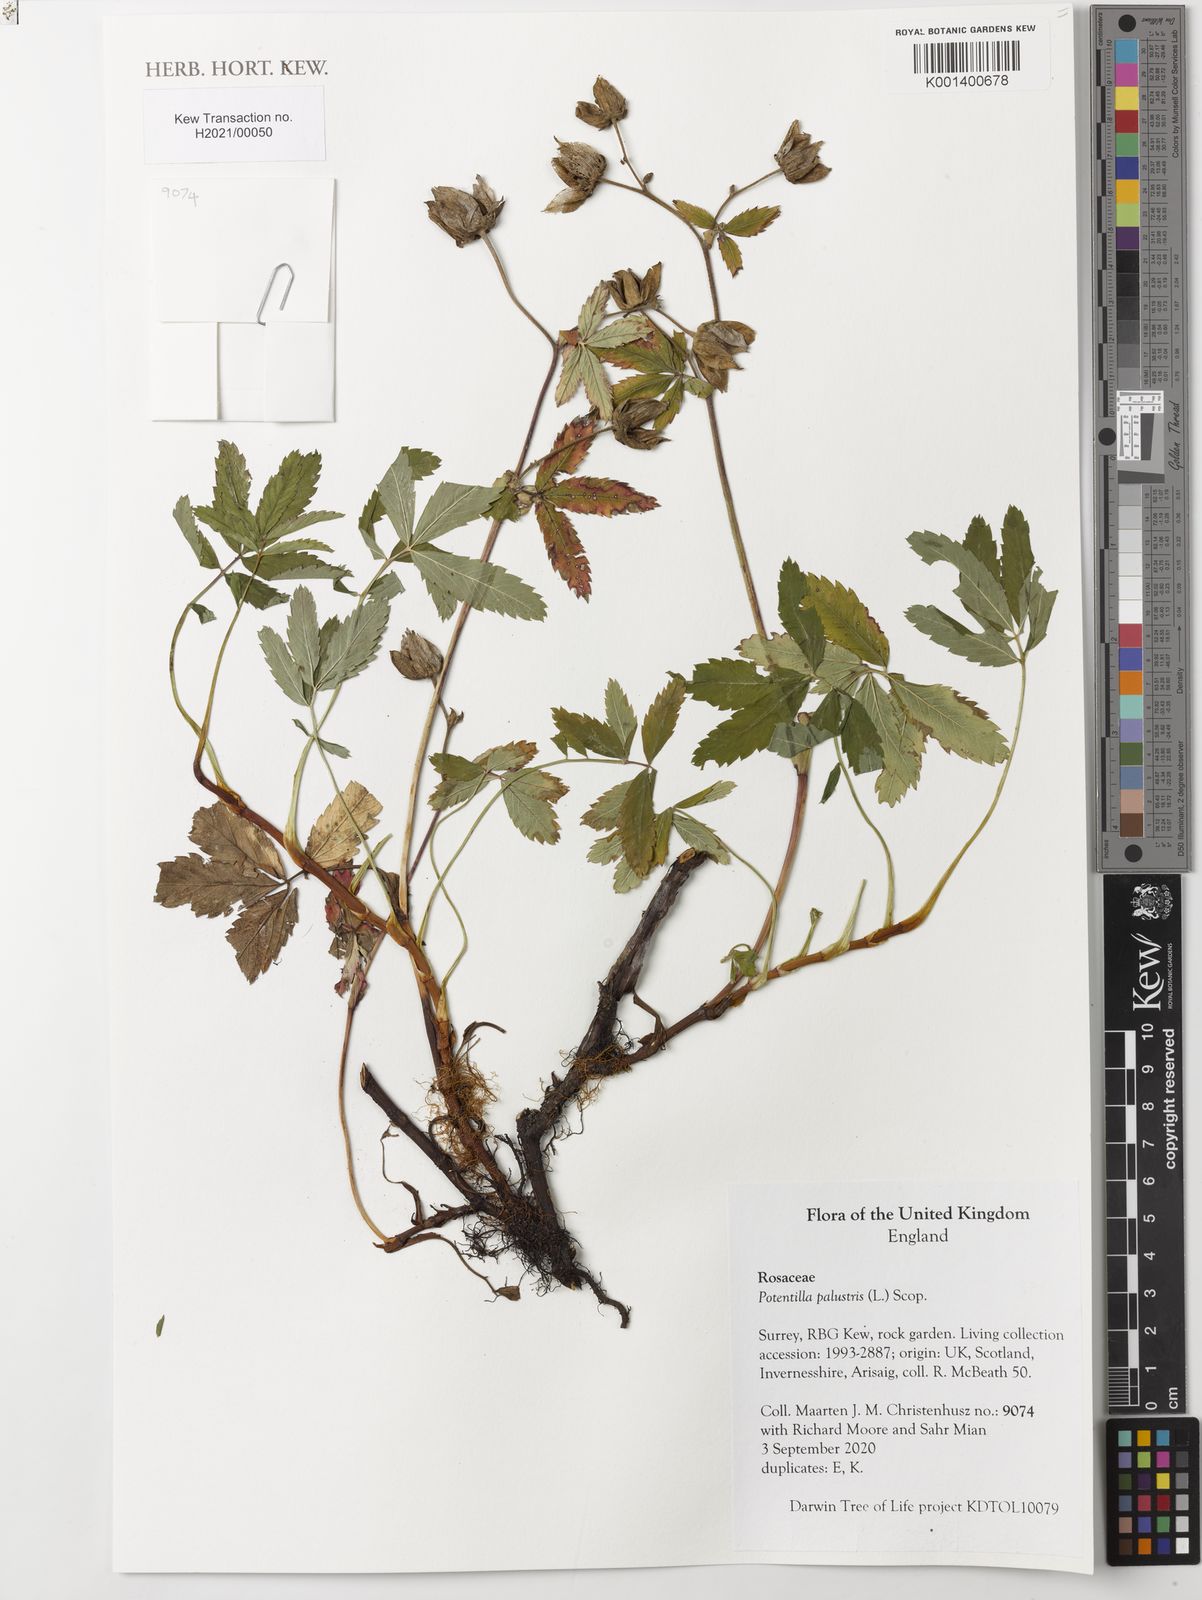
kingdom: Plantae
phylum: Tracheophyta
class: Magnoliopsida
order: Rosales
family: Rosaceae
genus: Comarum
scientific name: Comarum palustre
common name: Marsh cinquefoil
